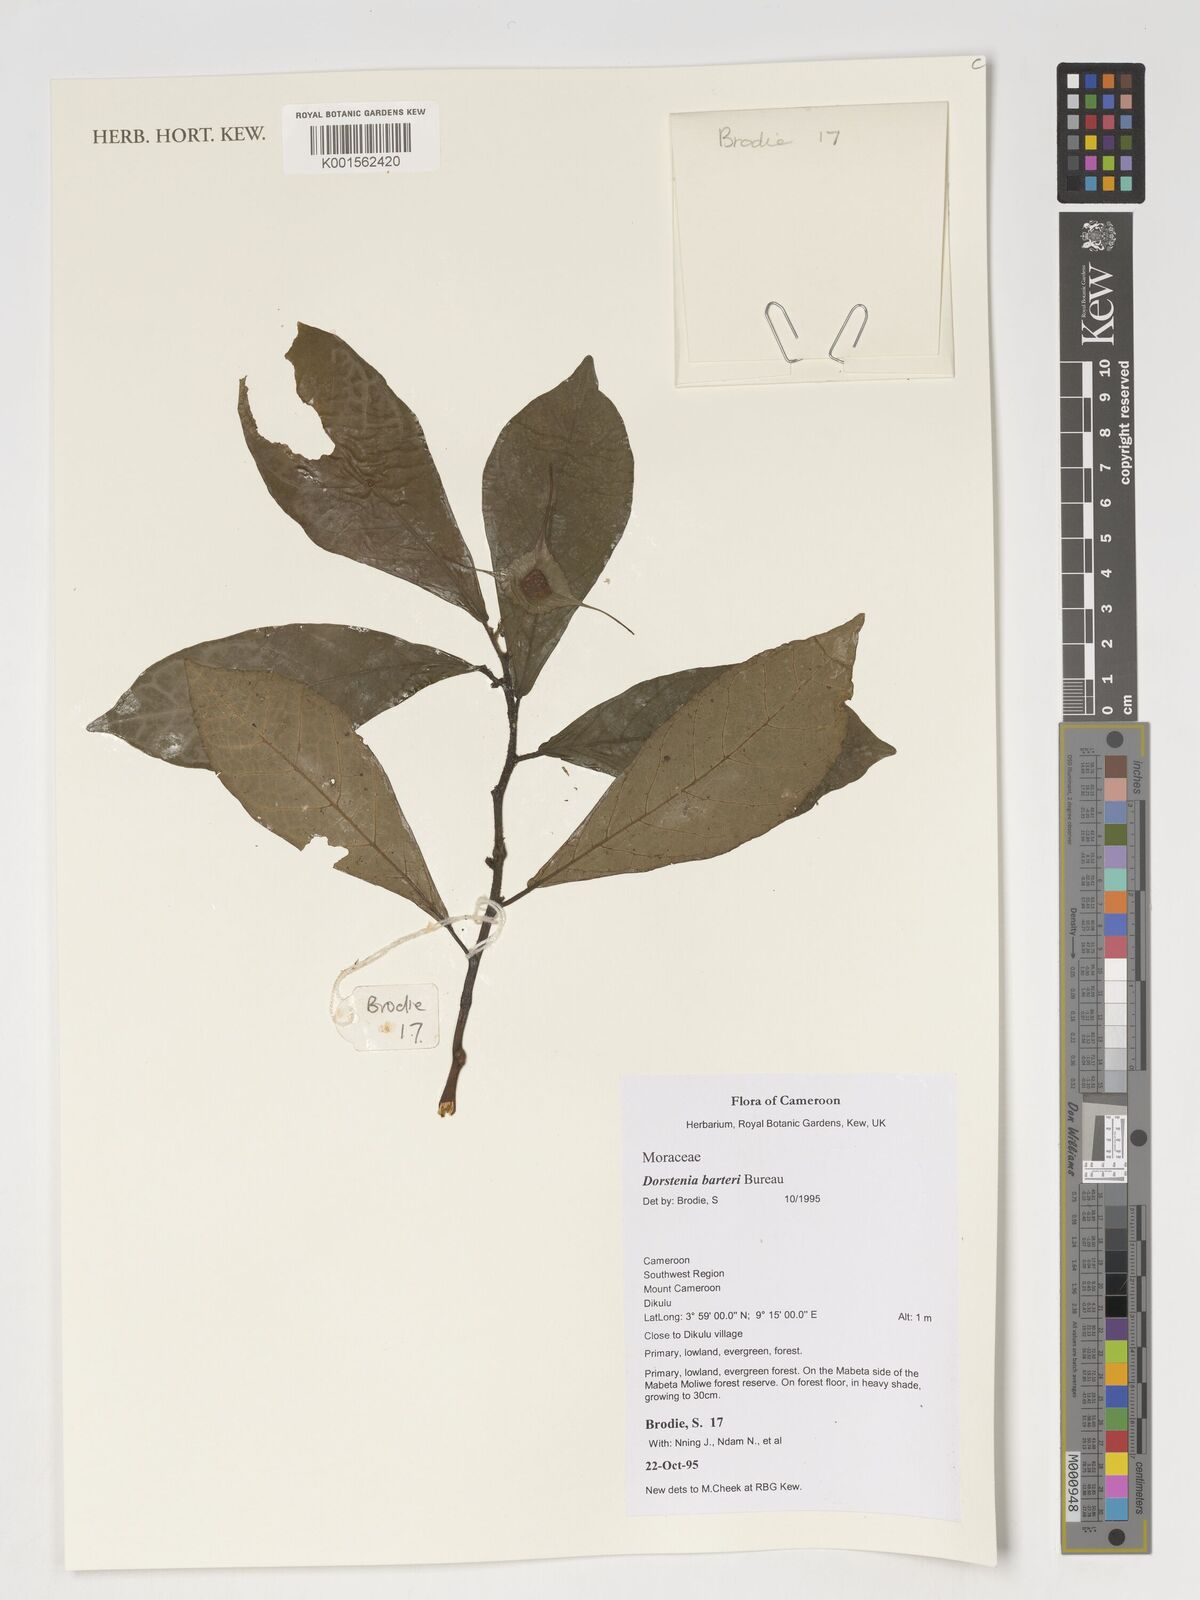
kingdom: Plantae
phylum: Tracheophyta
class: Magnoliopsida
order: Rosales
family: Moraceae
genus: Dorstenia
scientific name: Dorstenia barteri
